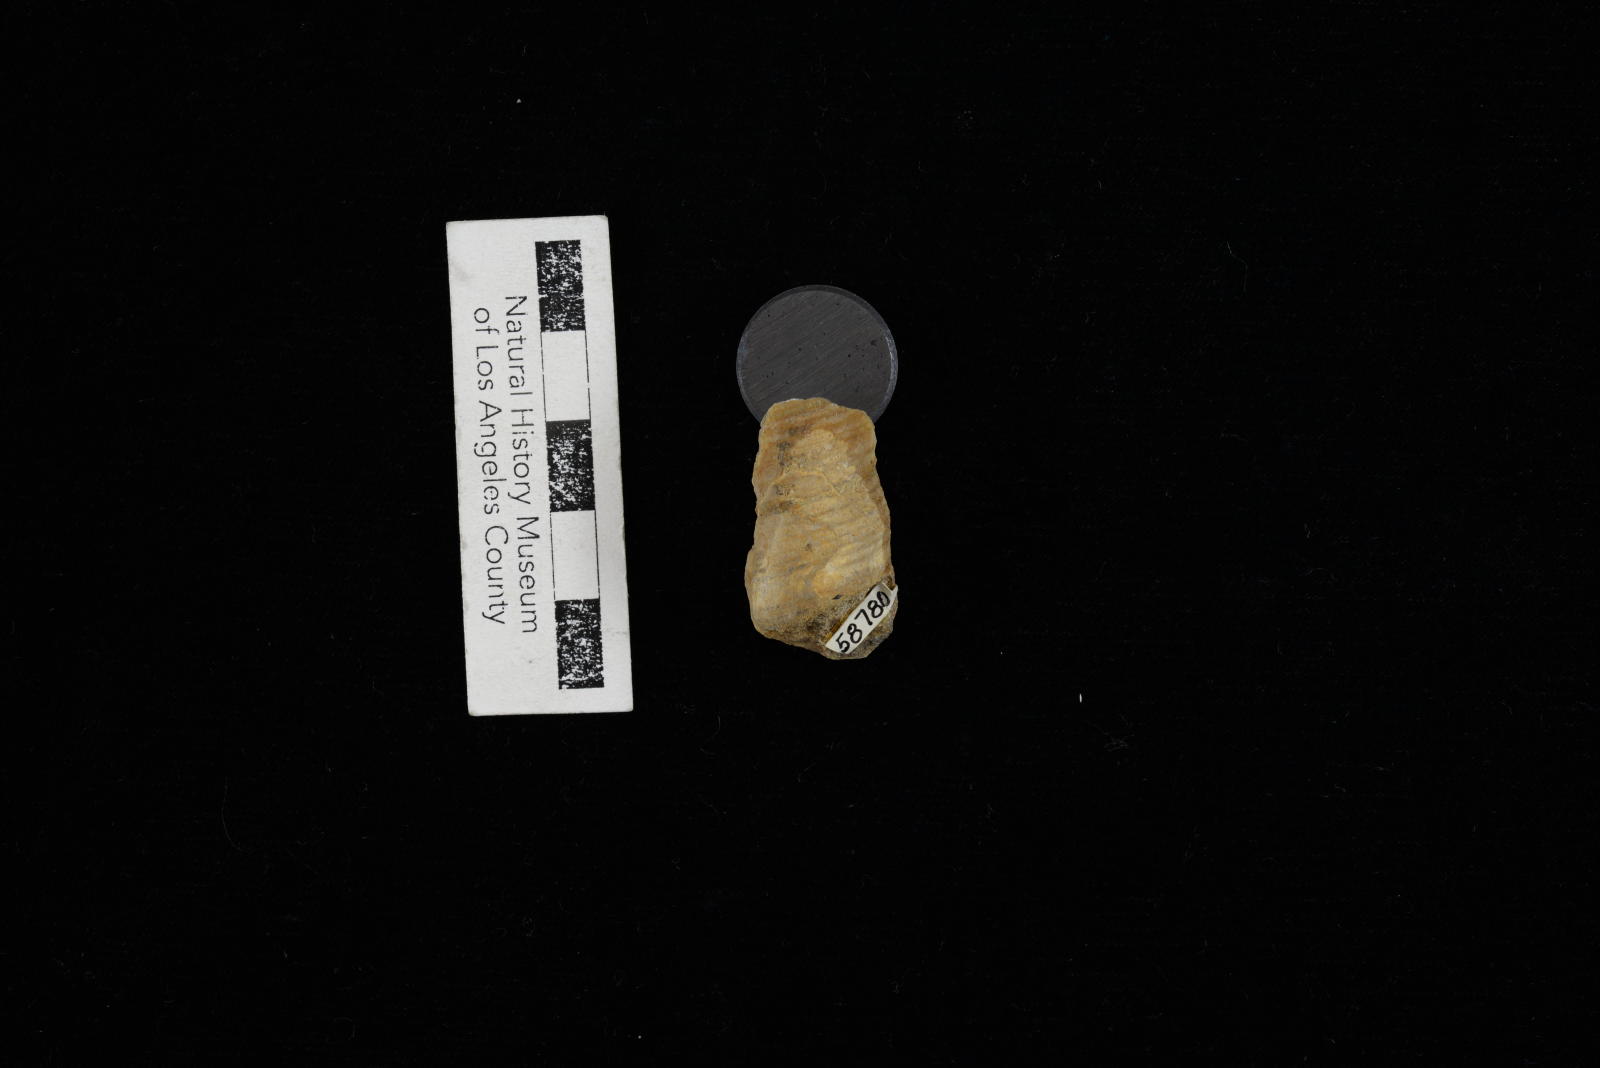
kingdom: Animalia
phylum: Mollusca
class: Gastropoda
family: Turritellidae
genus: Turritella
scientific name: Turritella
